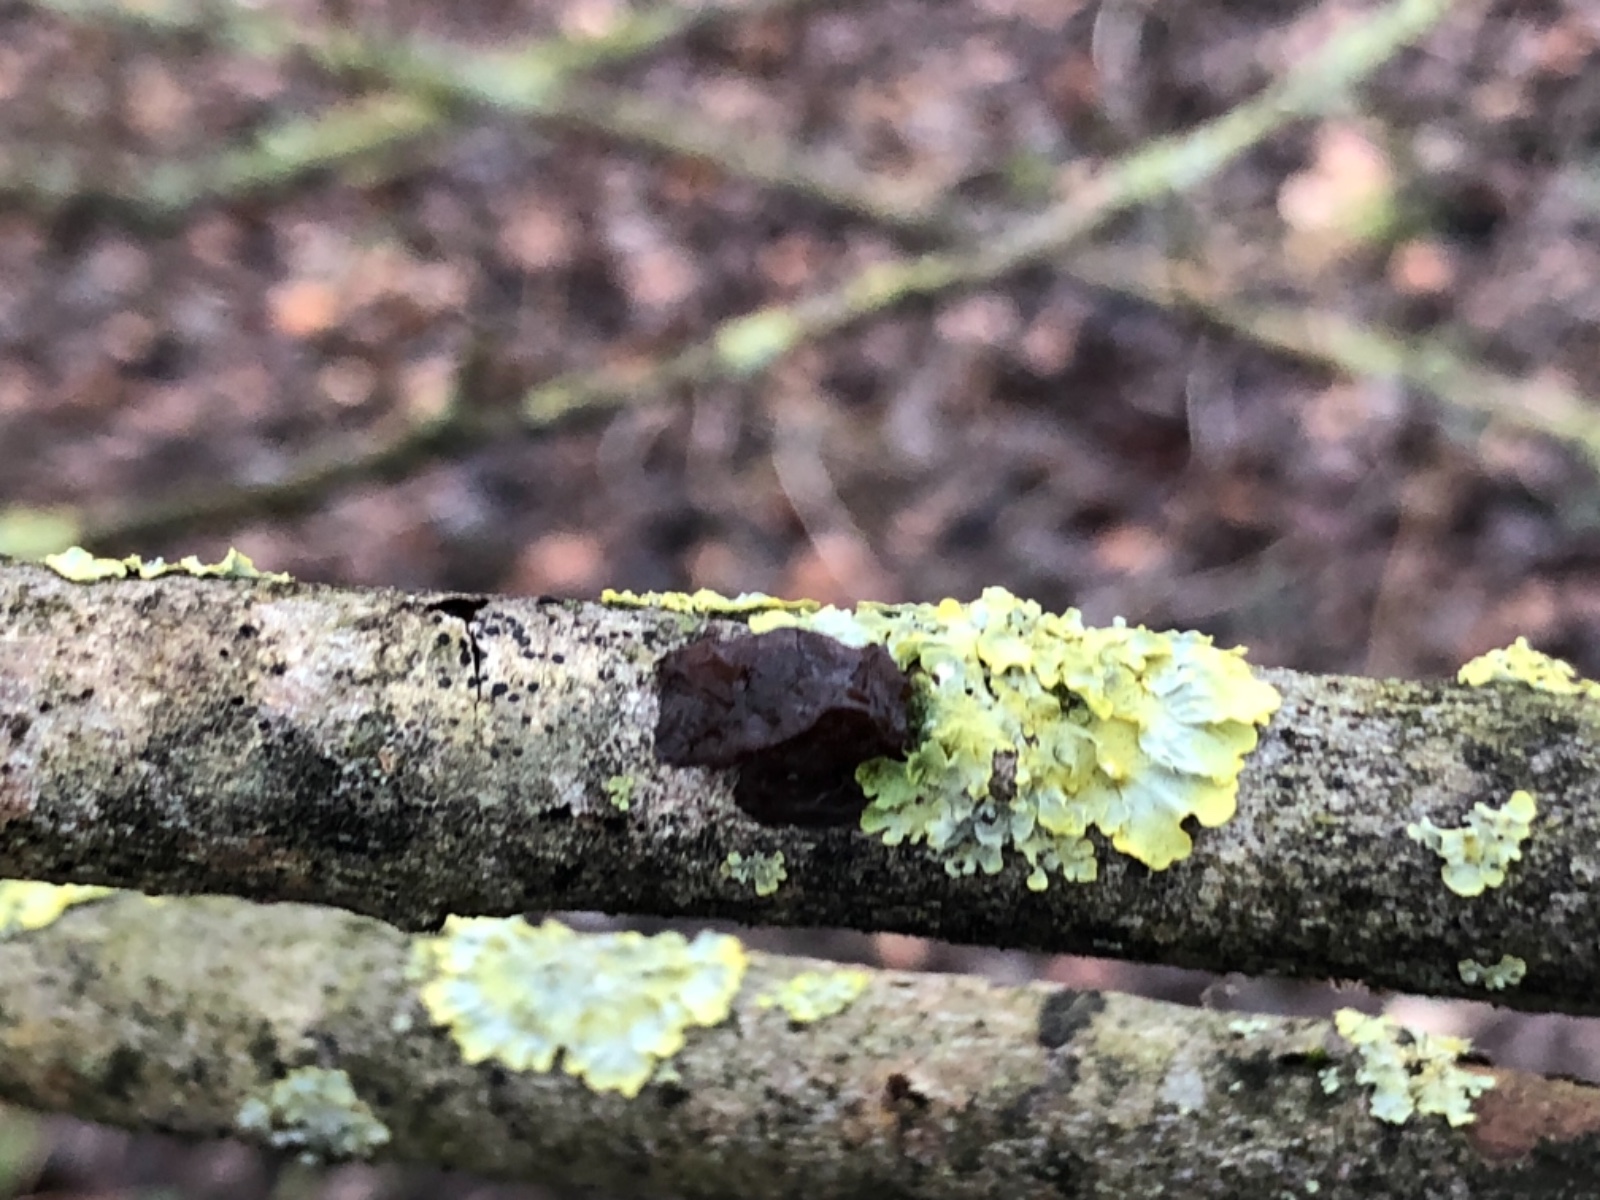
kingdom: Fungi
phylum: Basidiomycota
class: Agaricomycetes
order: Auriculariales
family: Auriculariaceae
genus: Exidia
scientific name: Exidia recisa
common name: pile-bævretop
